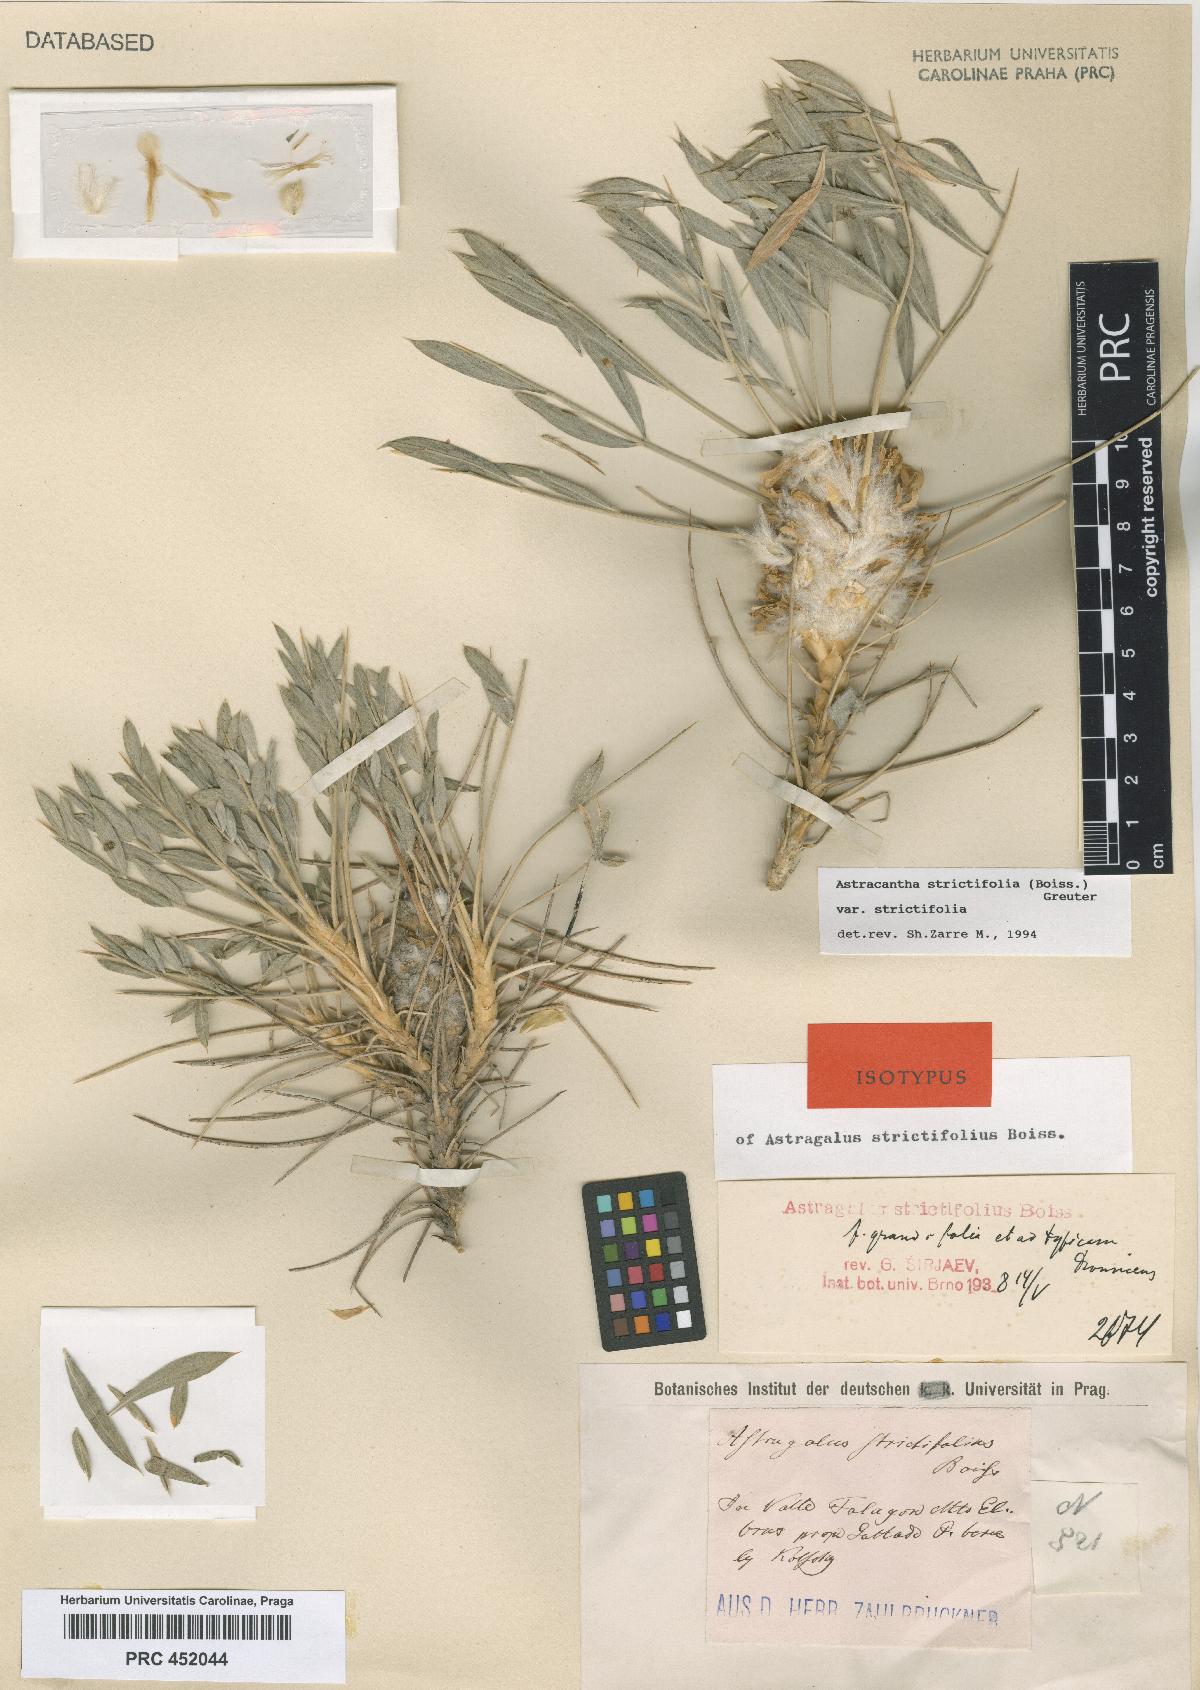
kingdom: Plantae
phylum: Tracheophyta
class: Magnoliopsida
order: Fabales
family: Fabaceae
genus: Astragalus
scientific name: Astragalus strictifolius
